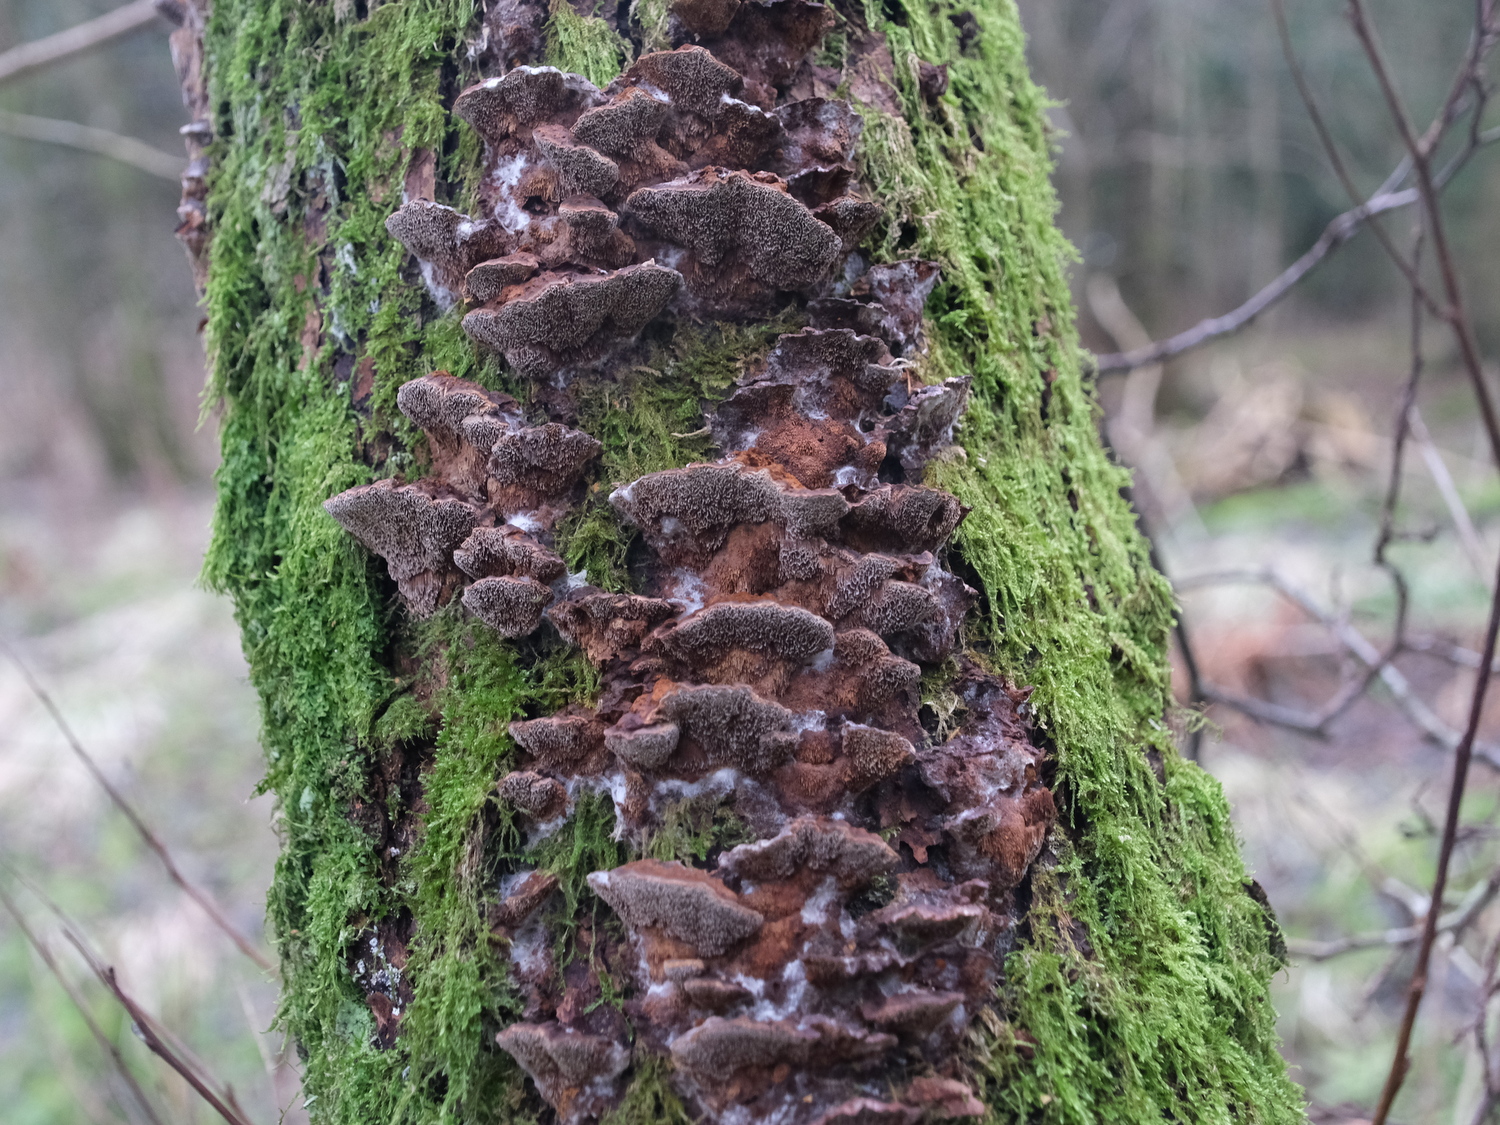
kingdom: Fungi
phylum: Basidiomycota
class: Agaricomycetes
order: Hymenochaetales
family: Hymenochaetaceae
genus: Xanthoporia
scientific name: Xanthoporia radiata
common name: elle-spejlporesvamp
